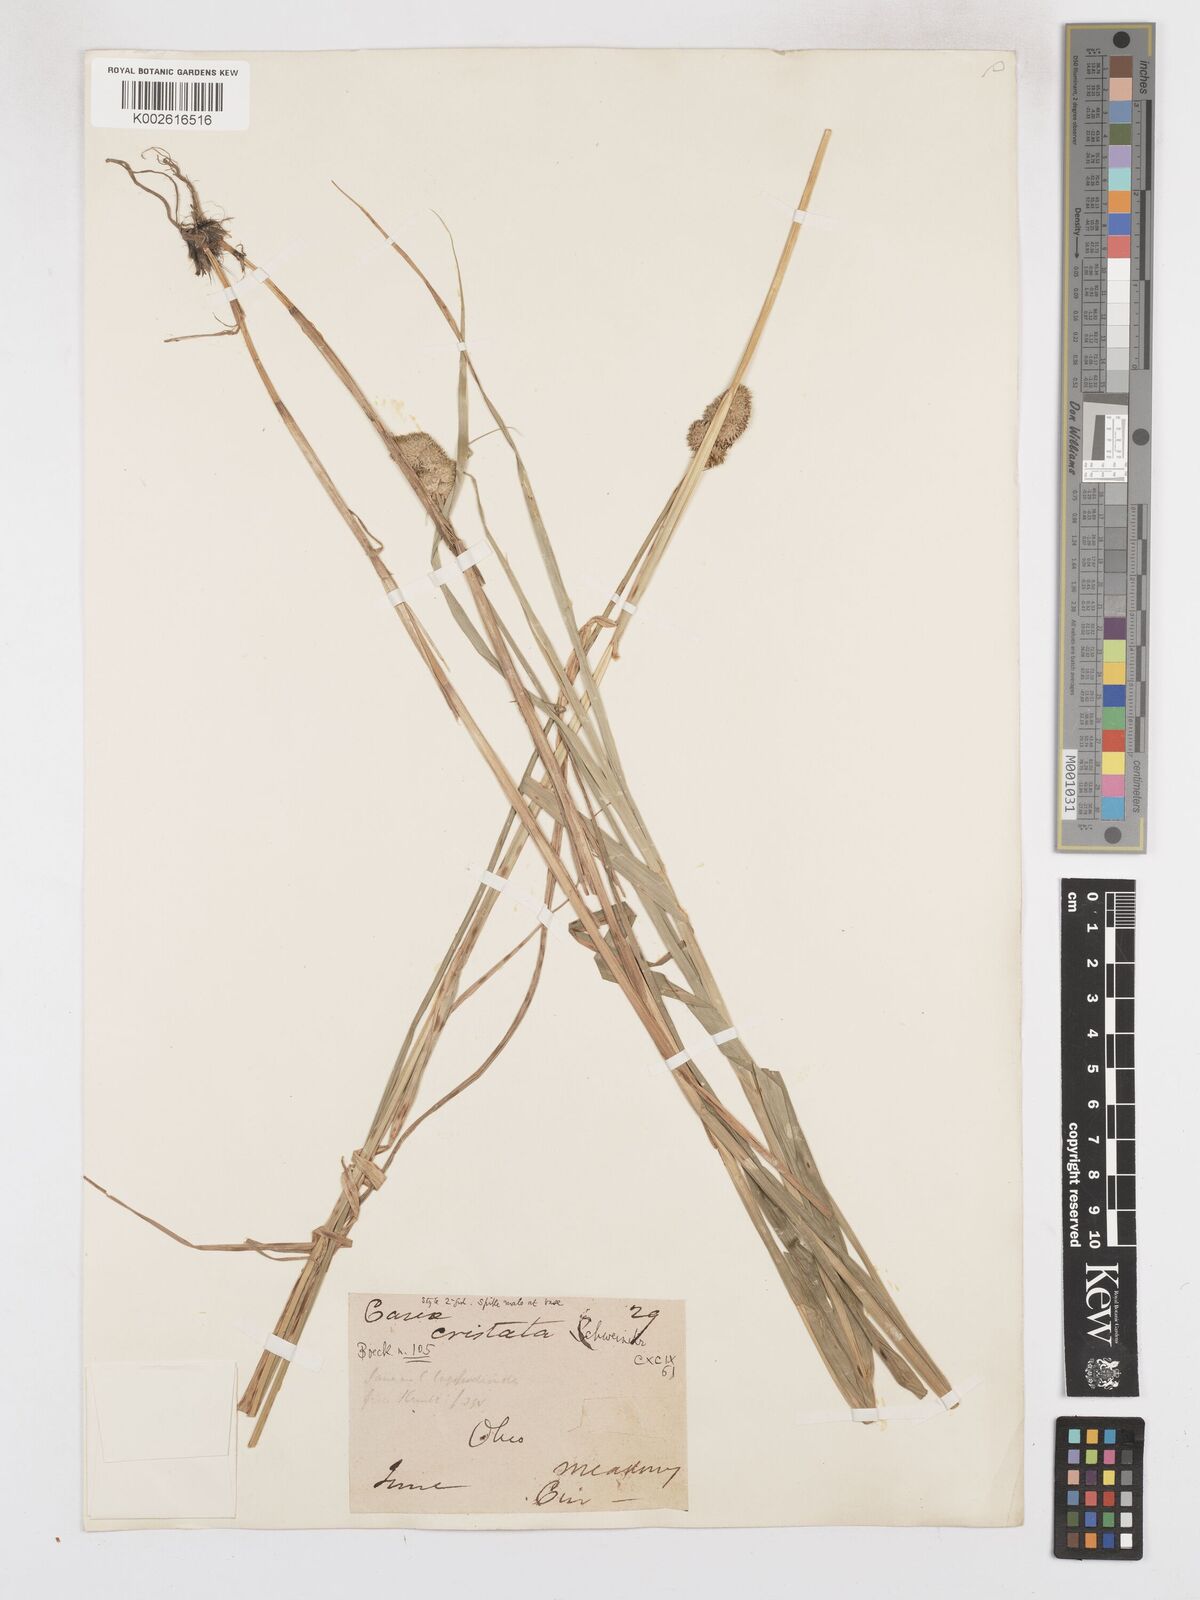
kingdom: Plantae
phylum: Tracheophyta
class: Liliopsida
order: Poales
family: Cyperaceae
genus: Carex
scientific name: Carex cristatella
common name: Crested oval sedge
